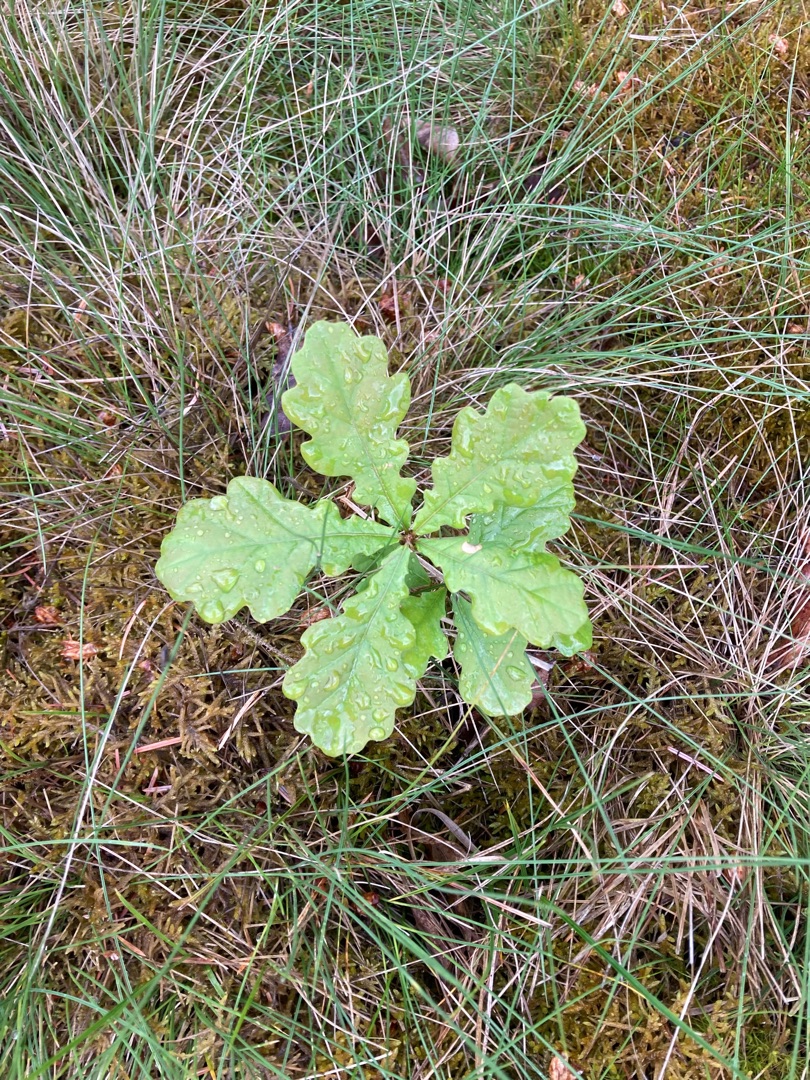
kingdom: Plantae
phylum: Tracheophyta
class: Magnoliopsida
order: Fagales
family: Fagaceae
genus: Quercus
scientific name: Quercus robur
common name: Stilk-eg/almindelig eg
